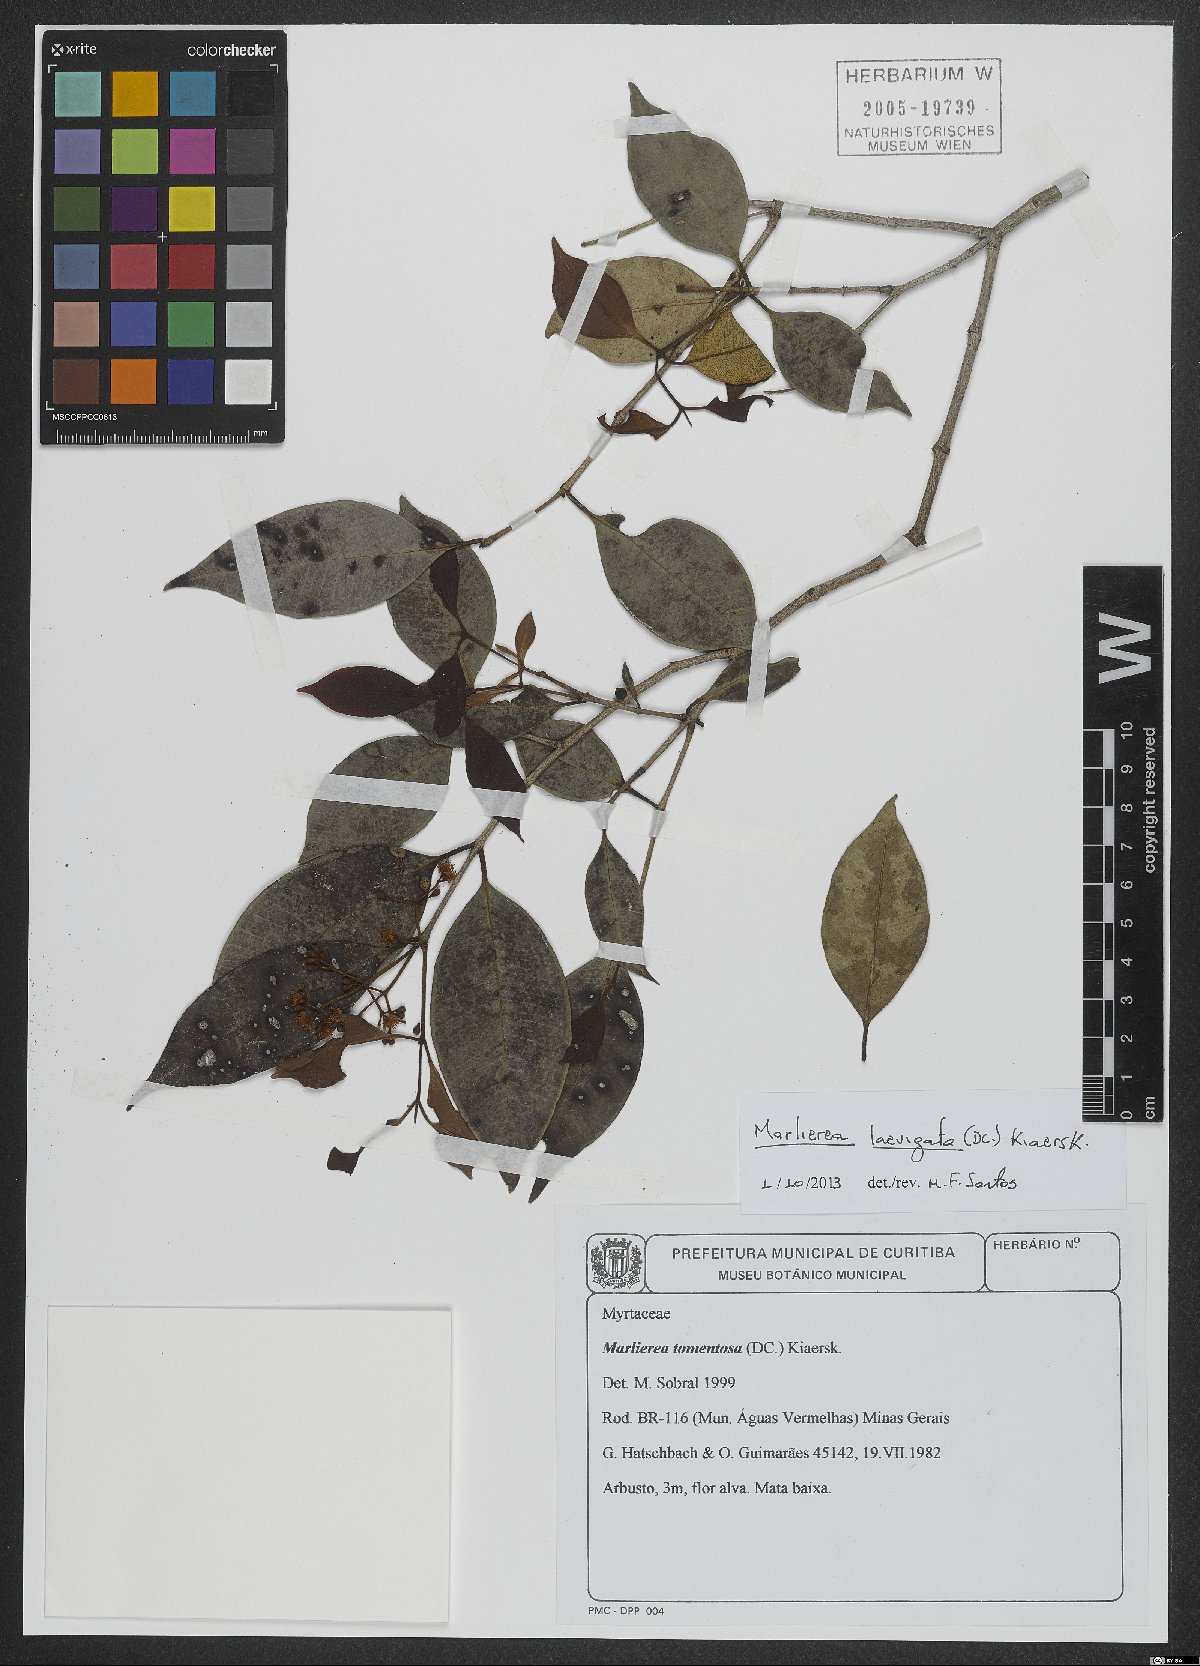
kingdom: Plantae
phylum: Tracheophyta
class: Magnoliopsida
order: Myrtales
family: Myrtaceae
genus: Myrcia
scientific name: Myrcia multipunctata
